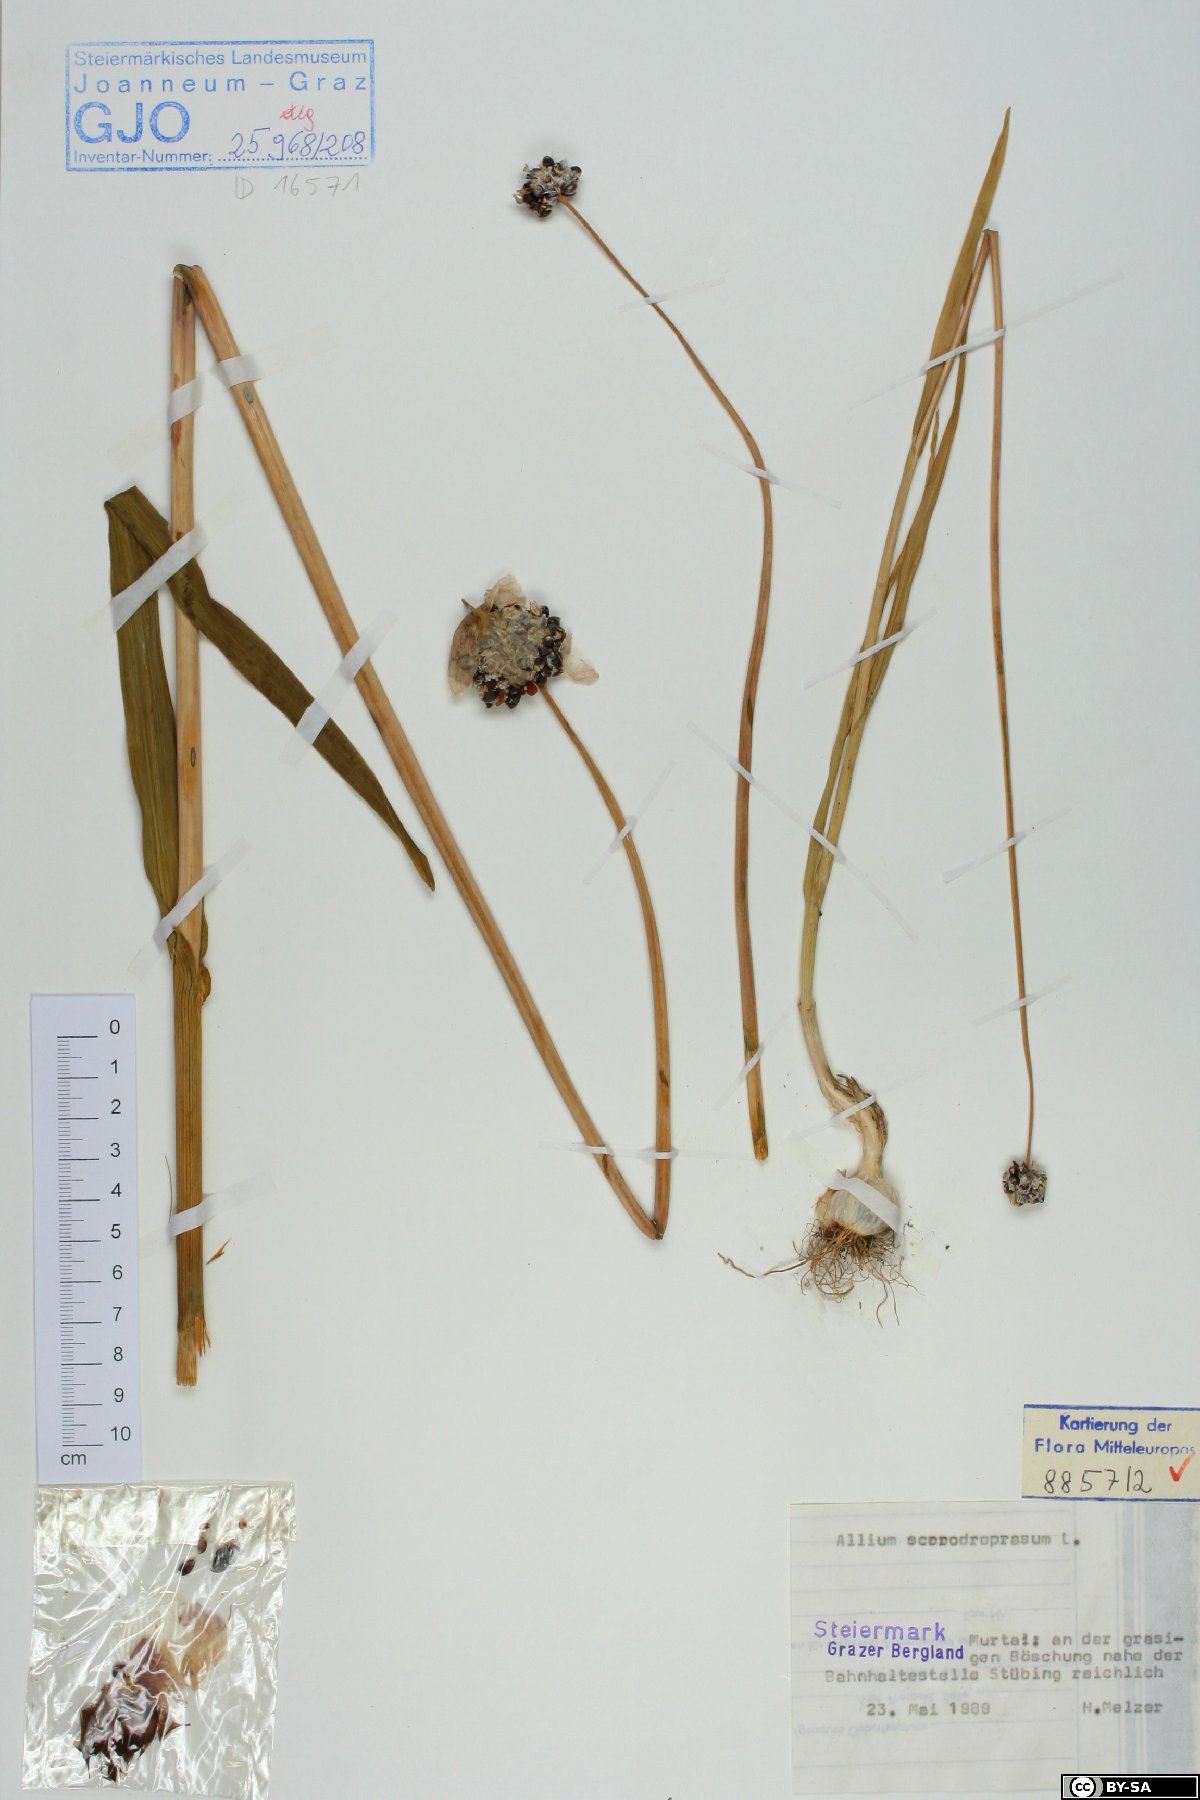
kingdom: Plantae
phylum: Tracheophyta
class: Liliopsida
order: Asparagales
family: Amaryllidaceae
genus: Allium
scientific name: Allium scorodoprasum
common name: Sand leek
